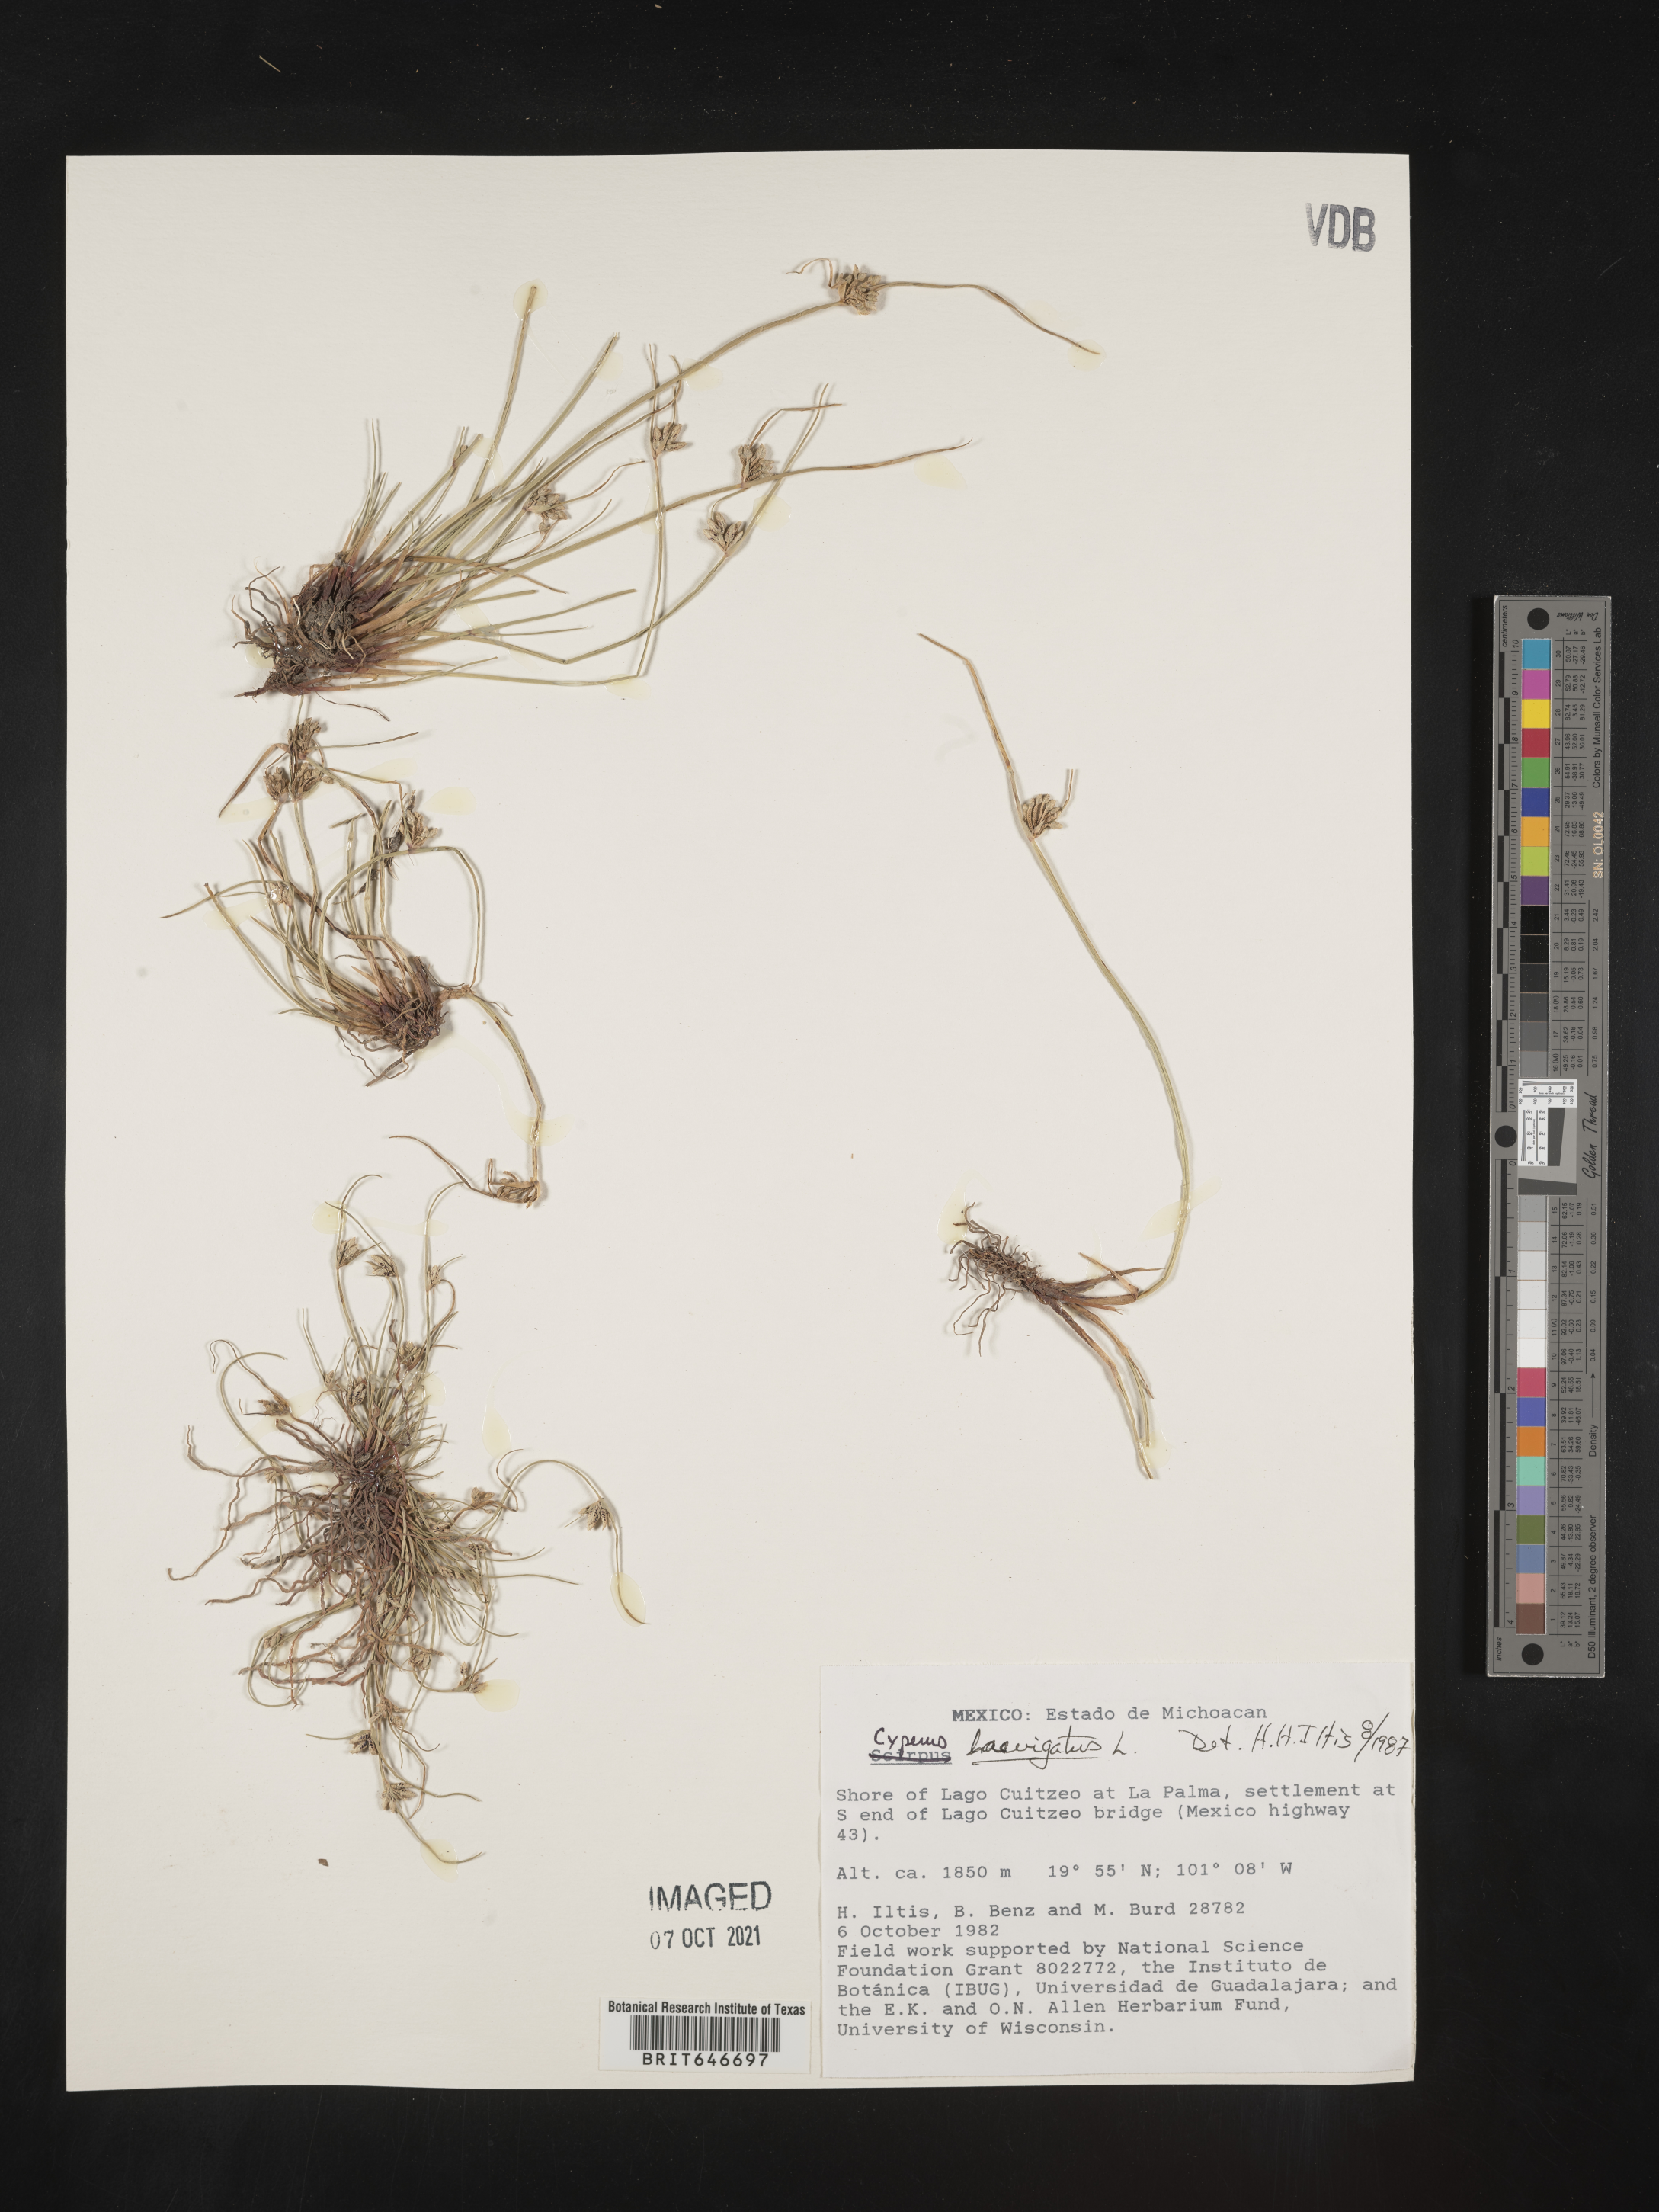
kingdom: Plantae
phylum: Tracheophyta
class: Liliopsida
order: Poales
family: Cyperaceae
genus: Cyperus
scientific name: Cyperus
